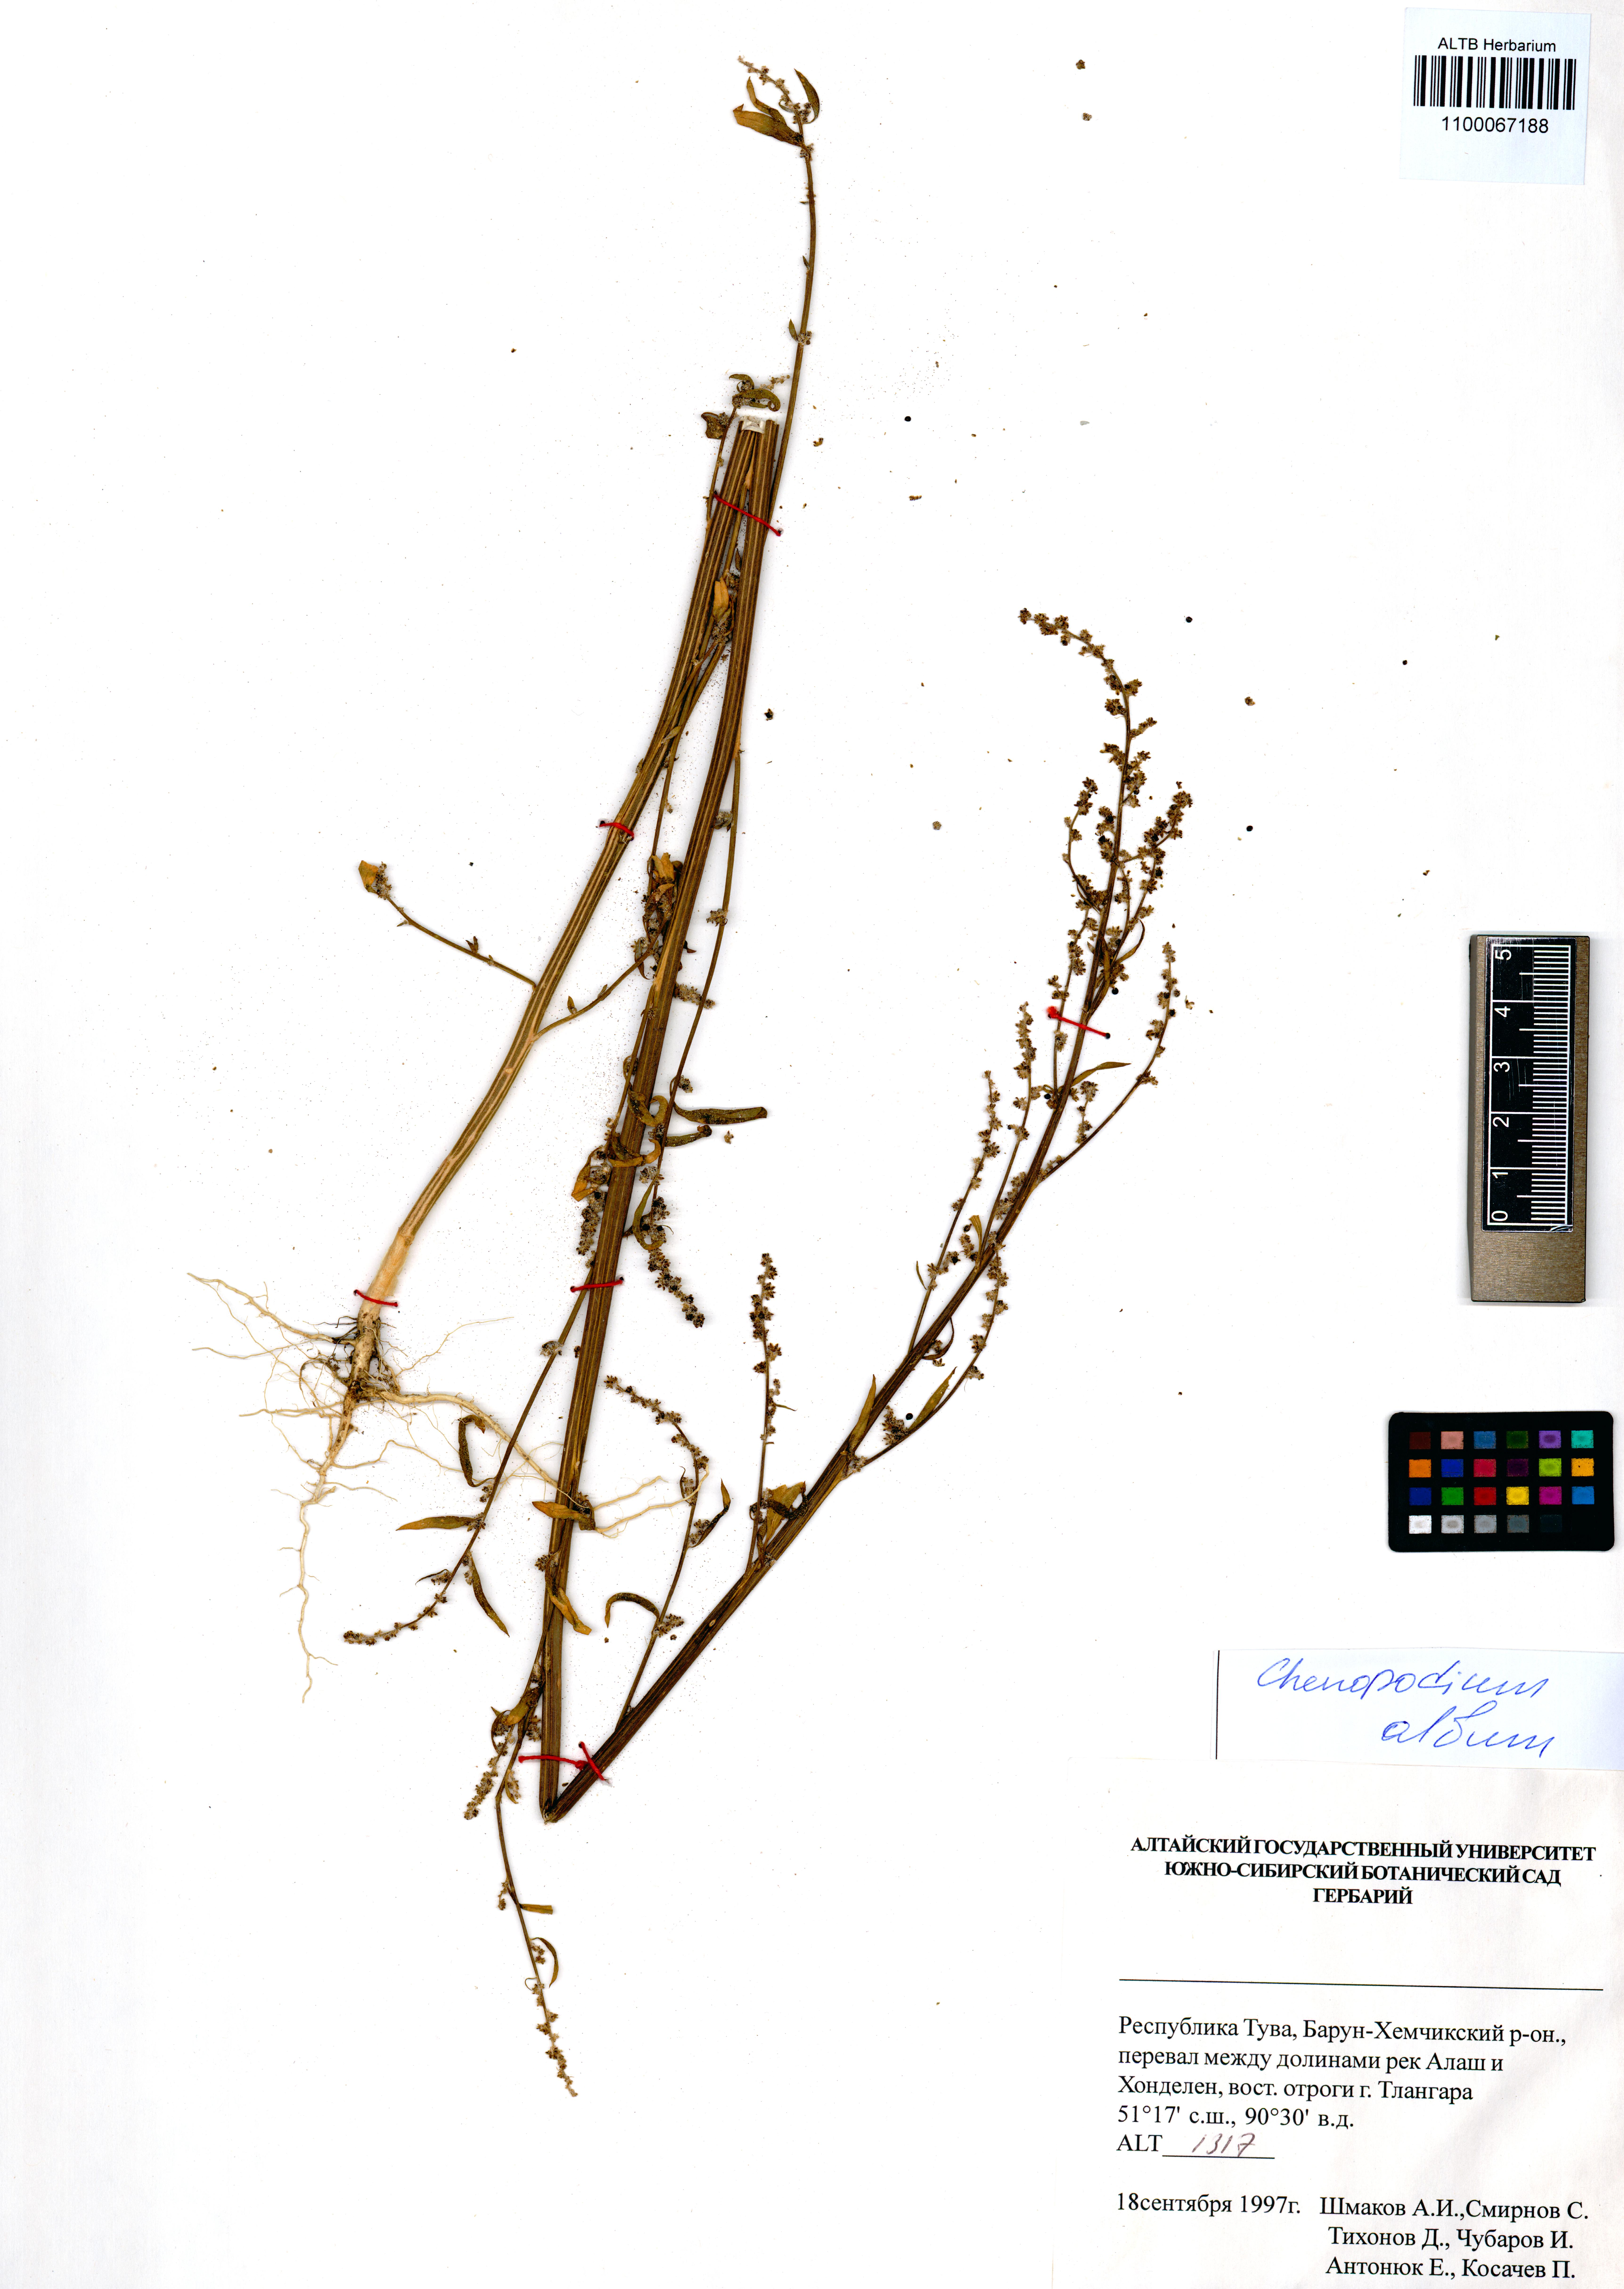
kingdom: Plantae
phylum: Tracheophyta
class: Magnoliopsida
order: Caryophyllales
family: Amaranthaceae
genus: Chenopodium
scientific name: Chenopodium album
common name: Fat-hen
